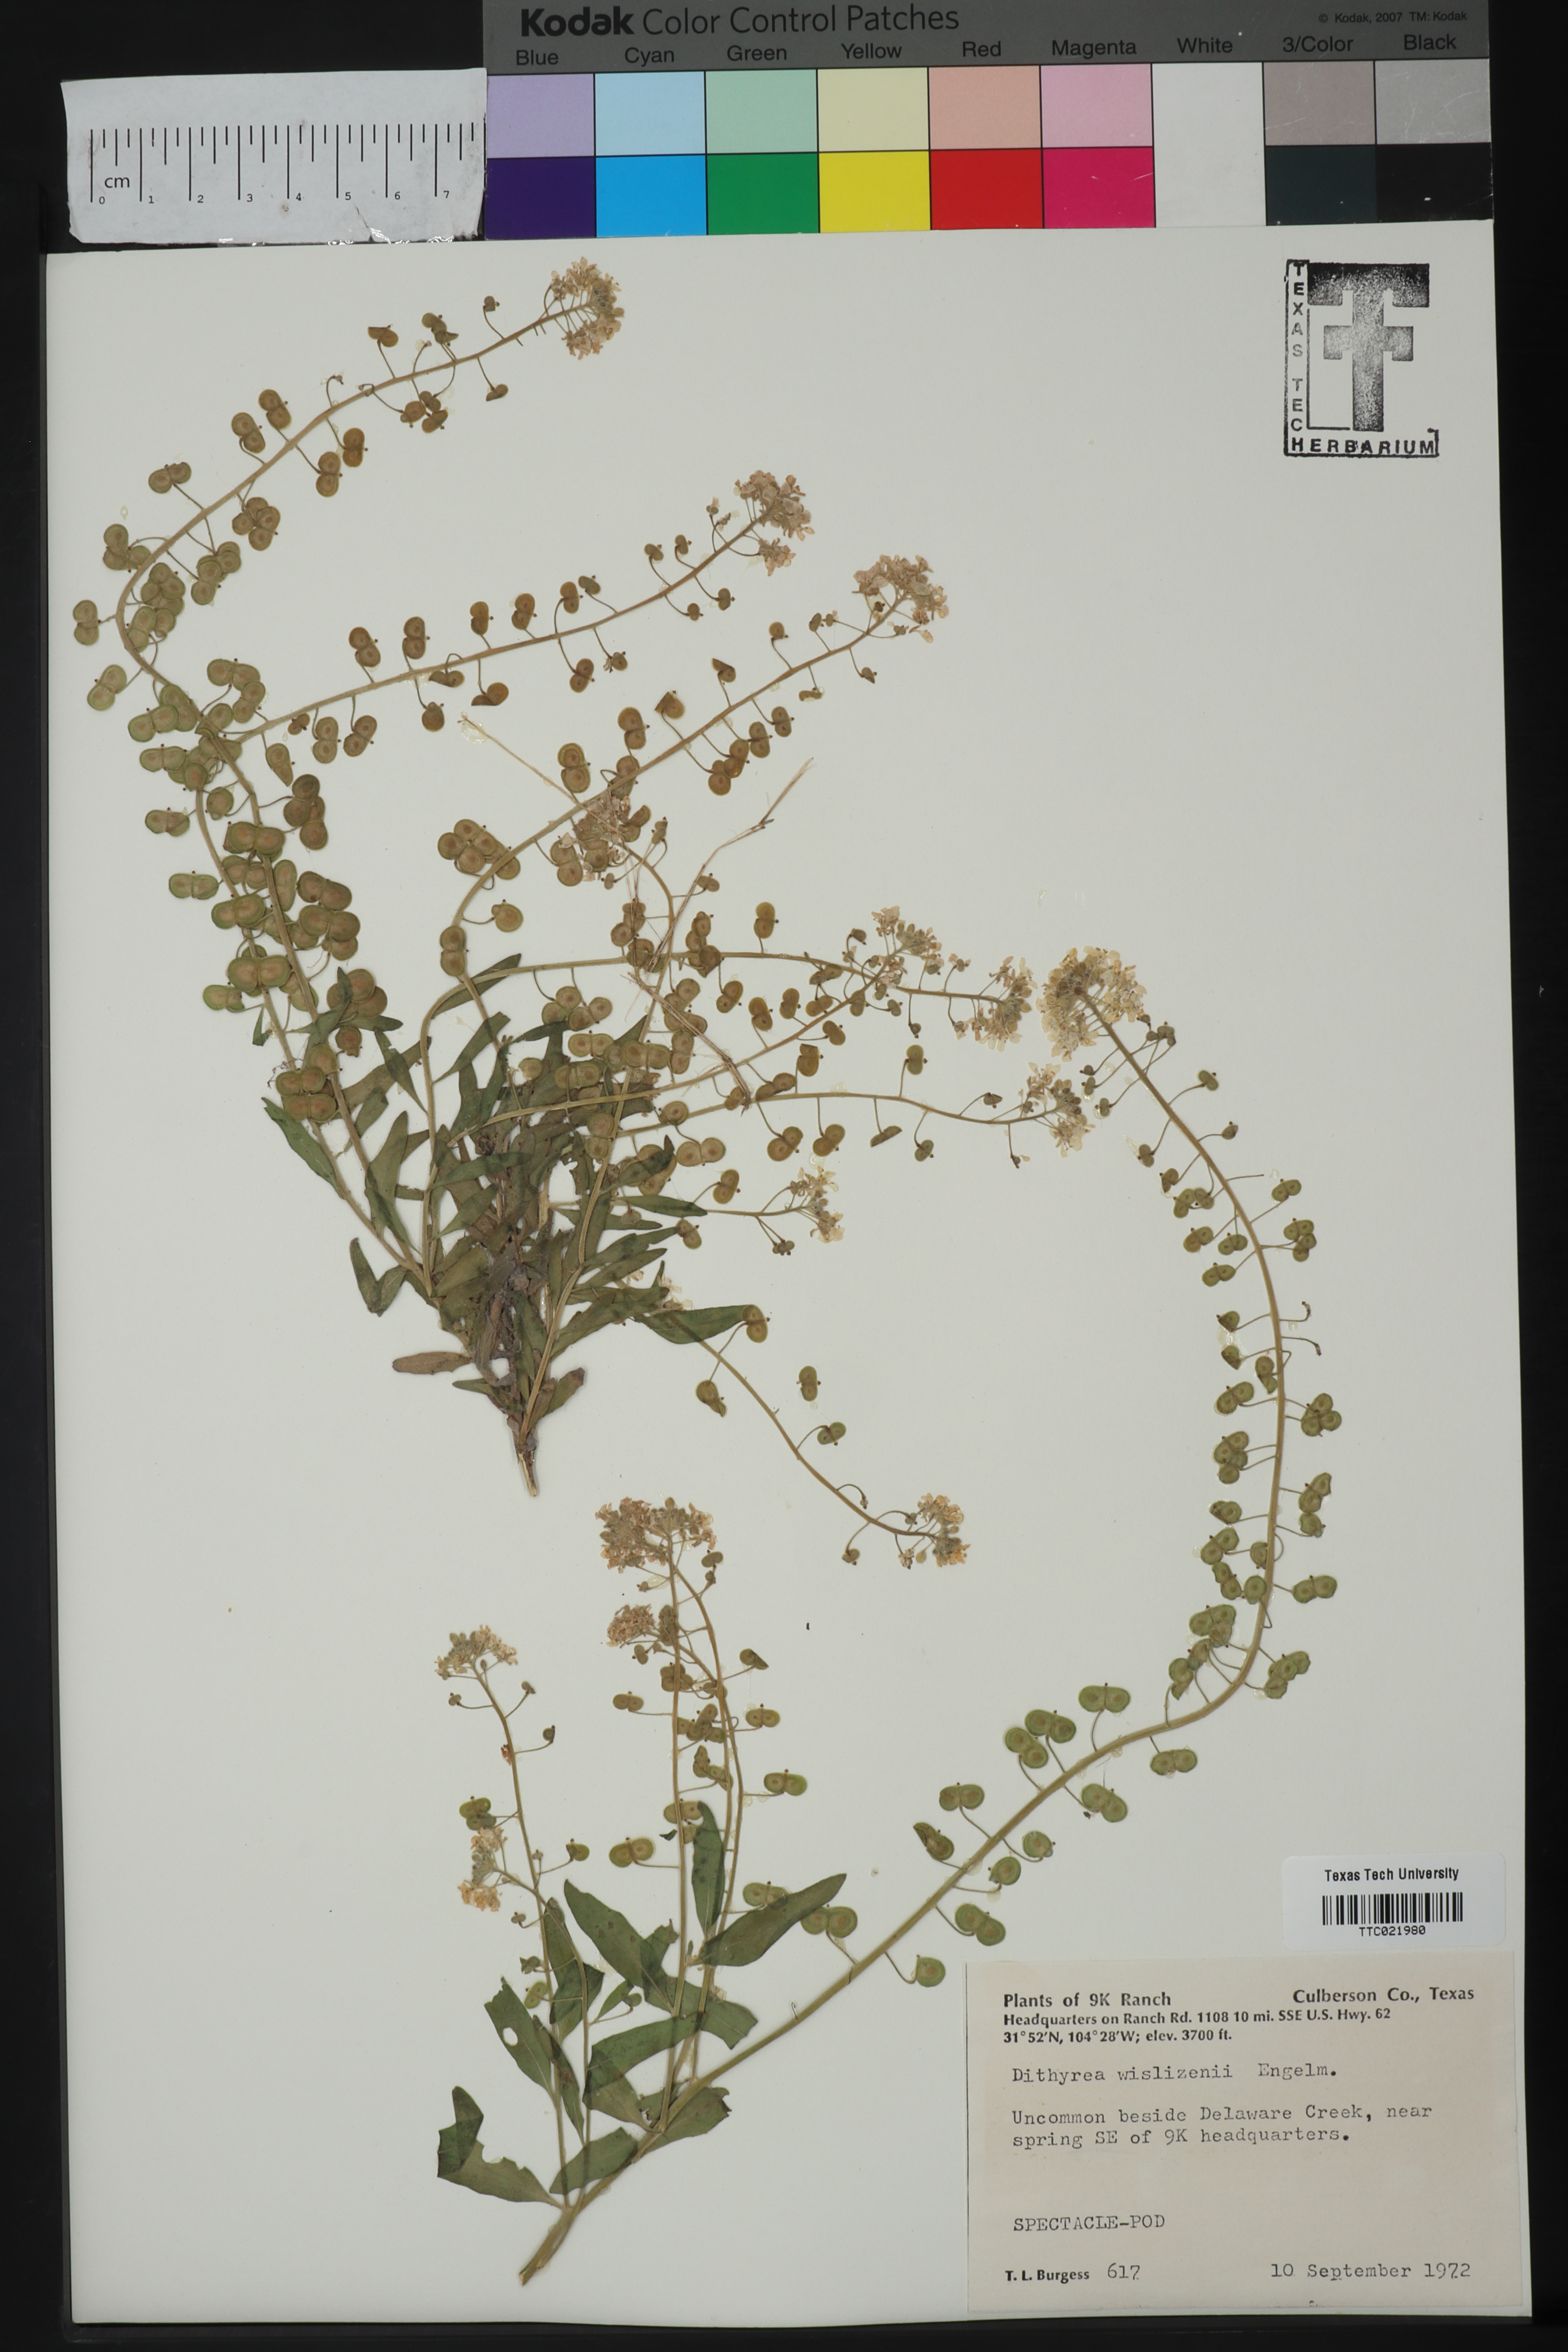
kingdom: Plantae
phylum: Tracheophyta
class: Magnoliopsida
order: Brassicales
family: Brassicaceae
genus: Dimorphocarpa
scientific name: Dimorphocarpa wislizenii
